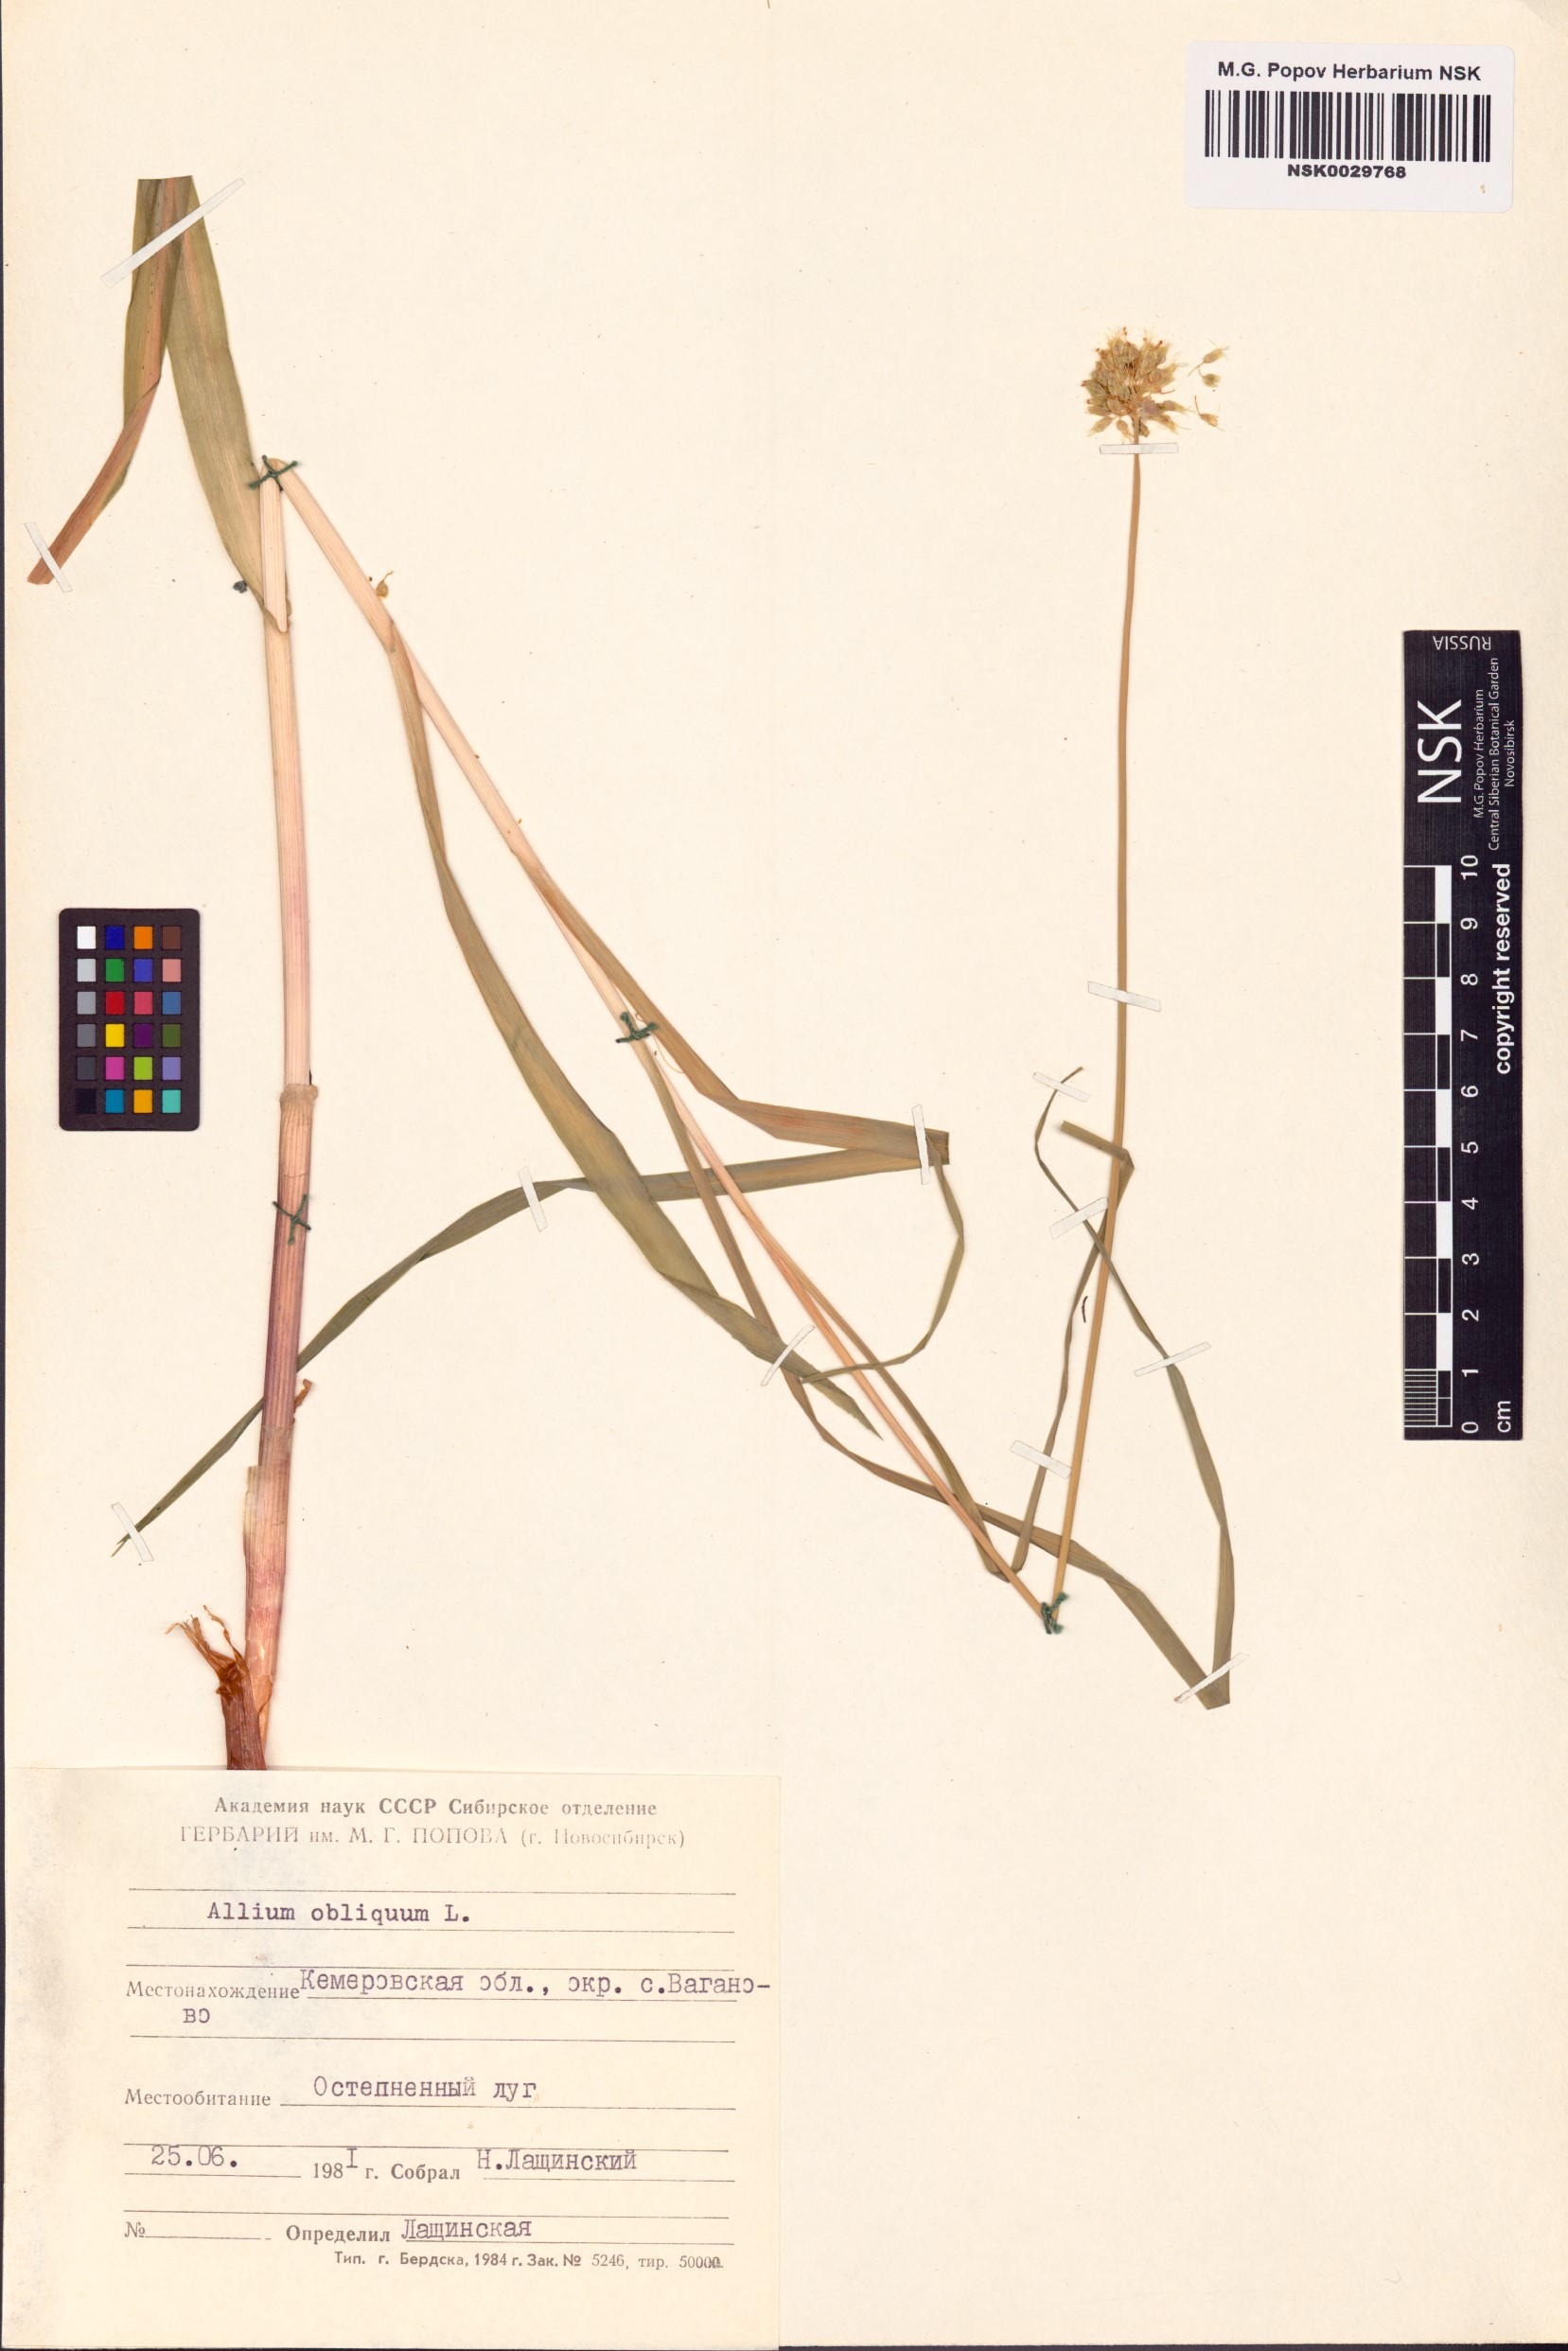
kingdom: Plantae
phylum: Tracheophyta
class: Liliopsida
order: Asparagales
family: Amaryllidaceae
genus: Allium
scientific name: Allium obliquum
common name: Oblique onion
